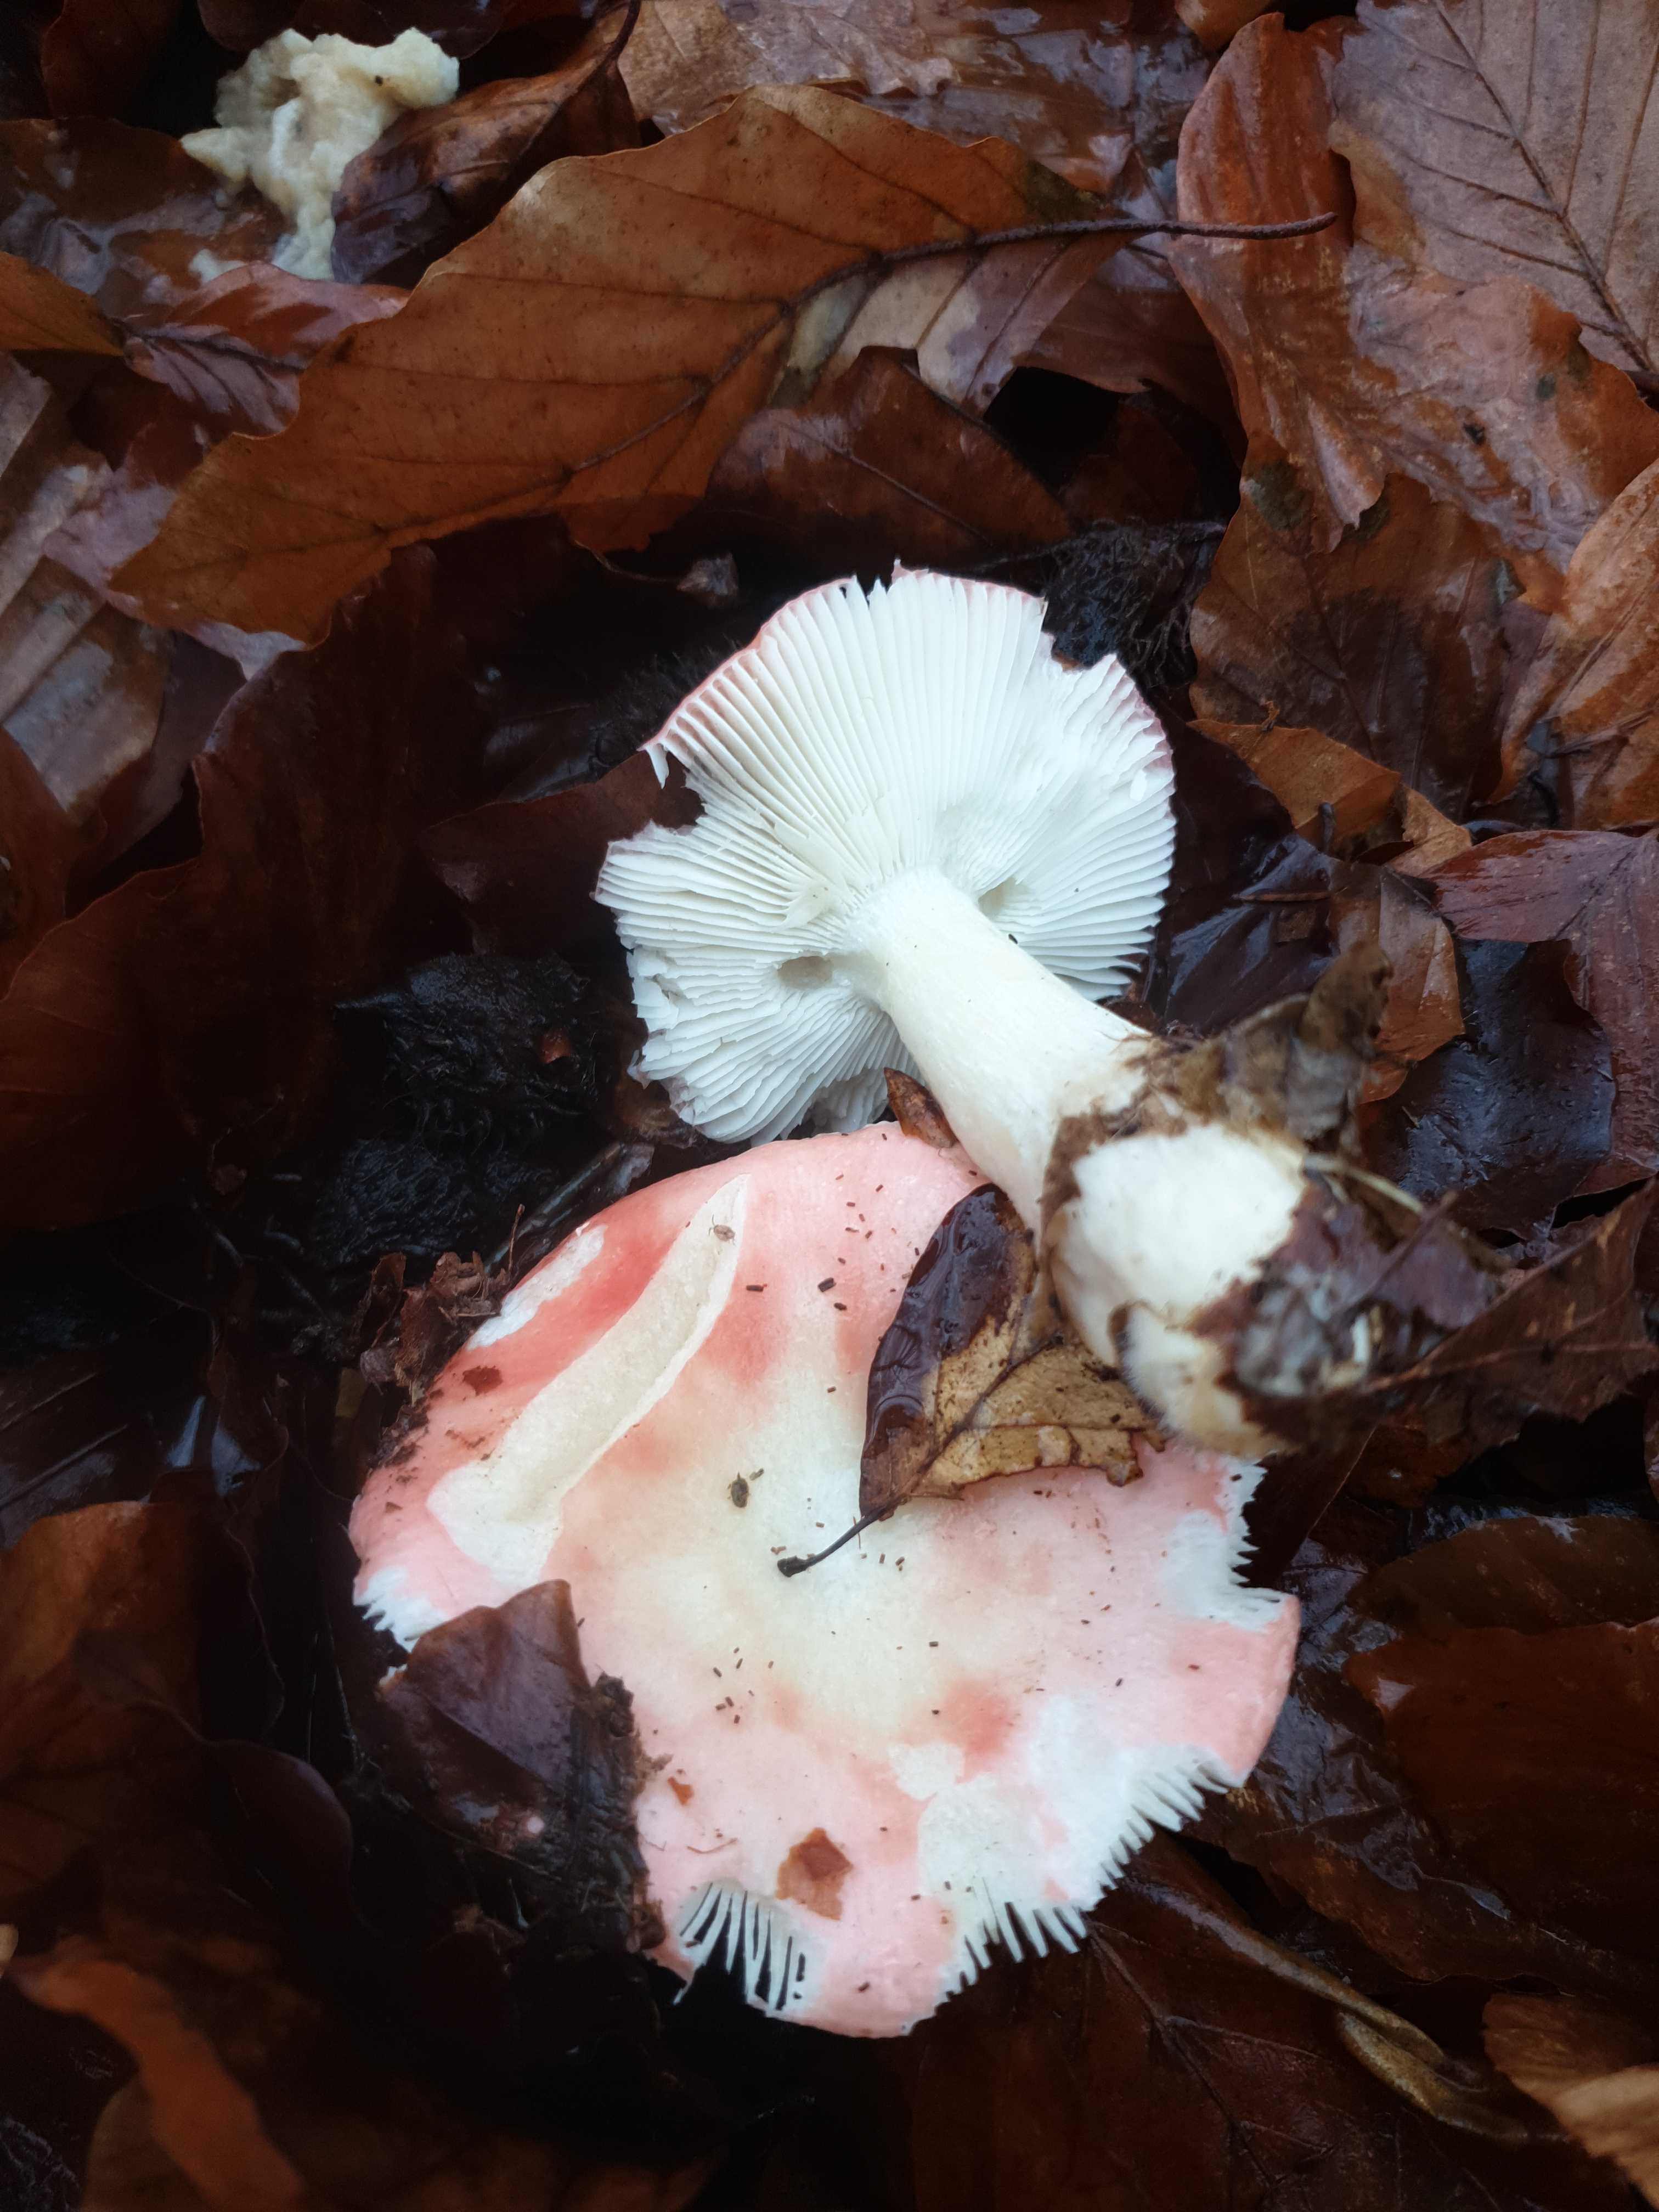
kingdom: Fungi
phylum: Basidiomycota
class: Agaricomycetes
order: Russulales
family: Russulaceae
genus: Russula
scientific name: Russula nobilis
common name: lille gift-skørhat
